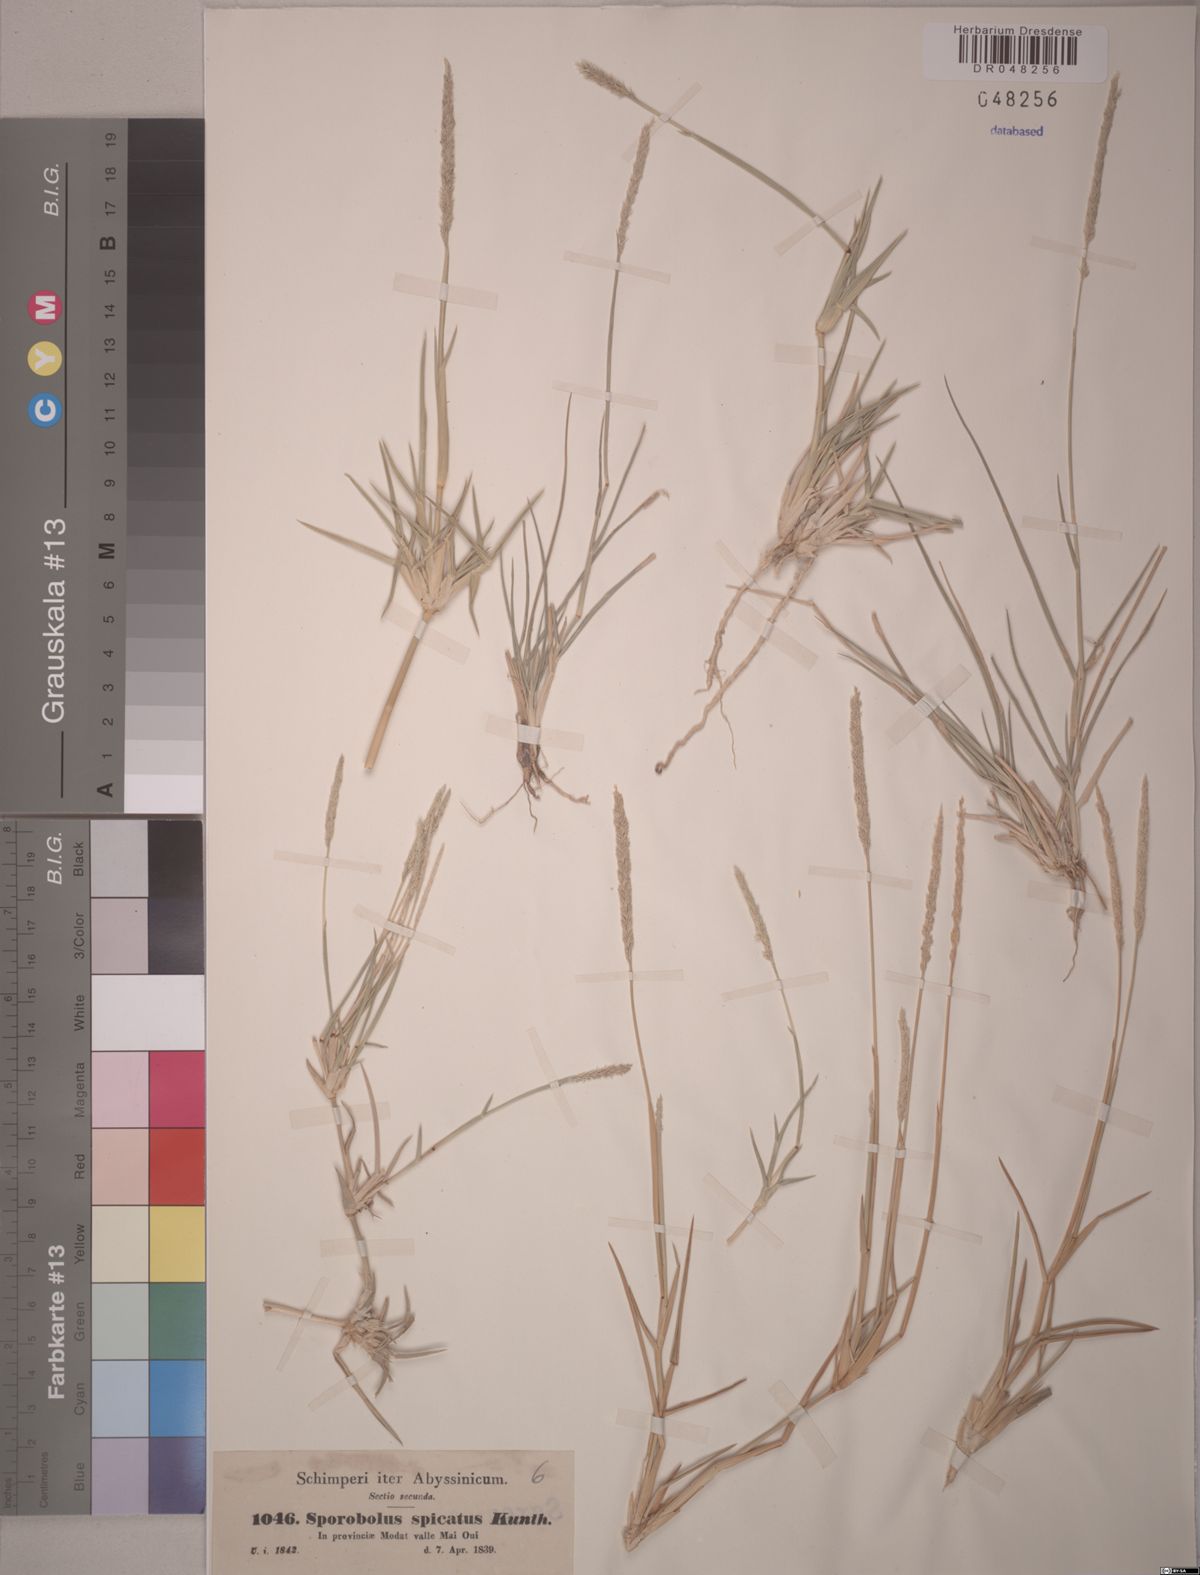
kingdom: Plantae
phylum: Tracheophyta
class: Liliopsida
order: Poales
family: Poaceae
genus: Sporobolus
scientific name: Sporobolus spicatus
